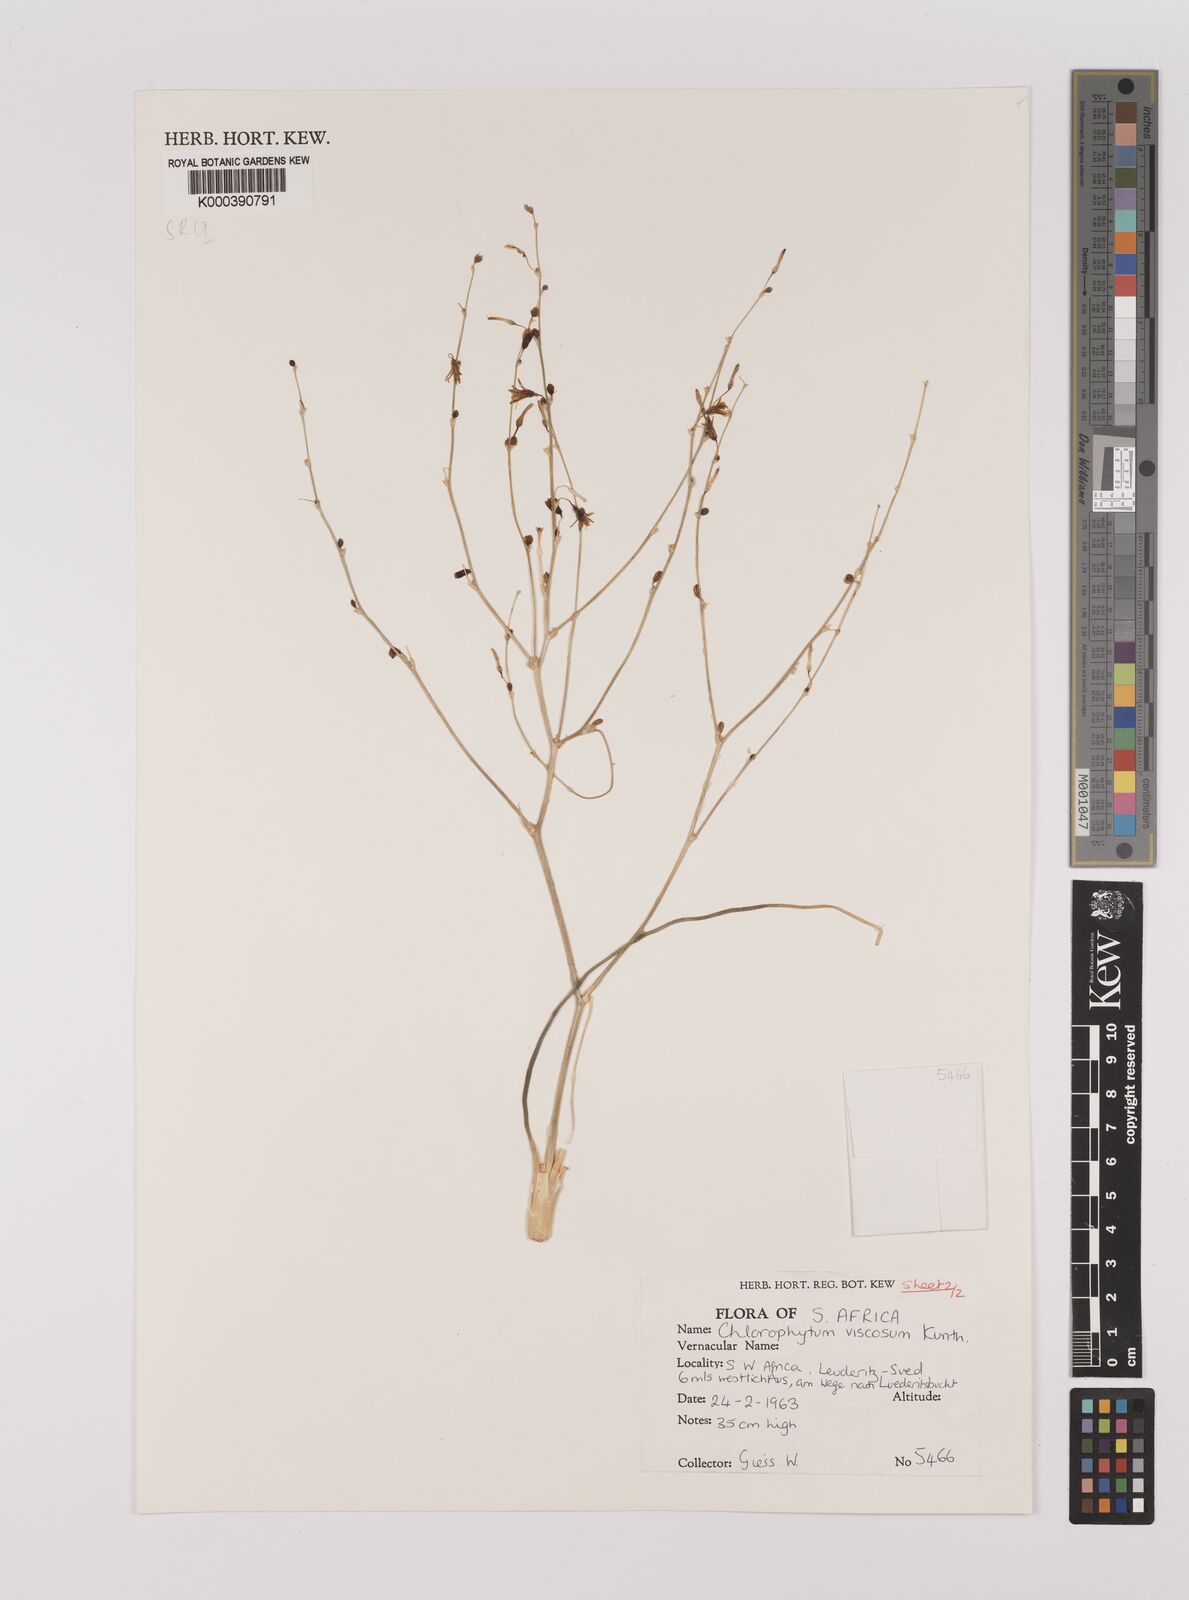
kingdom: Plantae
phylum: Tracheophyta
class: Liliopsida
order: Asparagales
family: Asparagaceae
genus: Chlorophytum
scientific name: Chlorophytum viscosum
